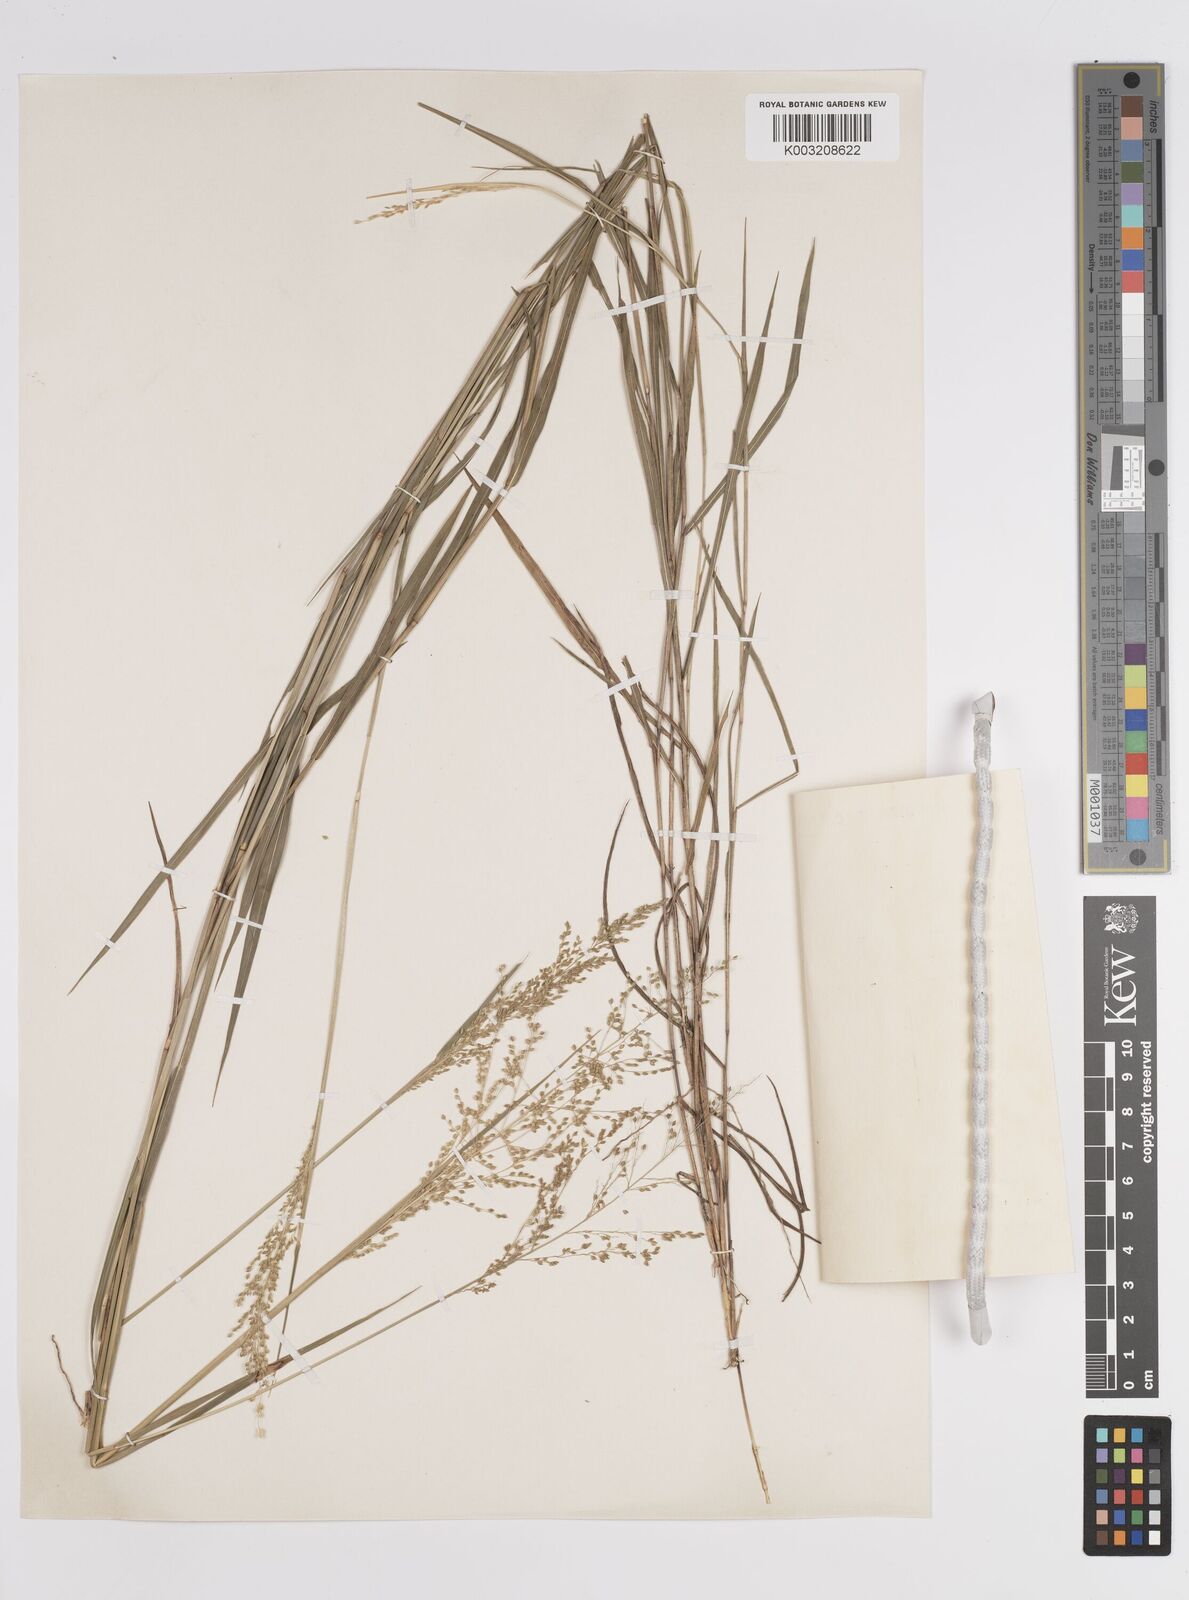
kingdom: Plantae
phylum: Tracheophyta
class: Liliopsida
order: Poales
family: Poaceae
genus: Trichanthecium
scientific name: Trichanthecium nervatum
